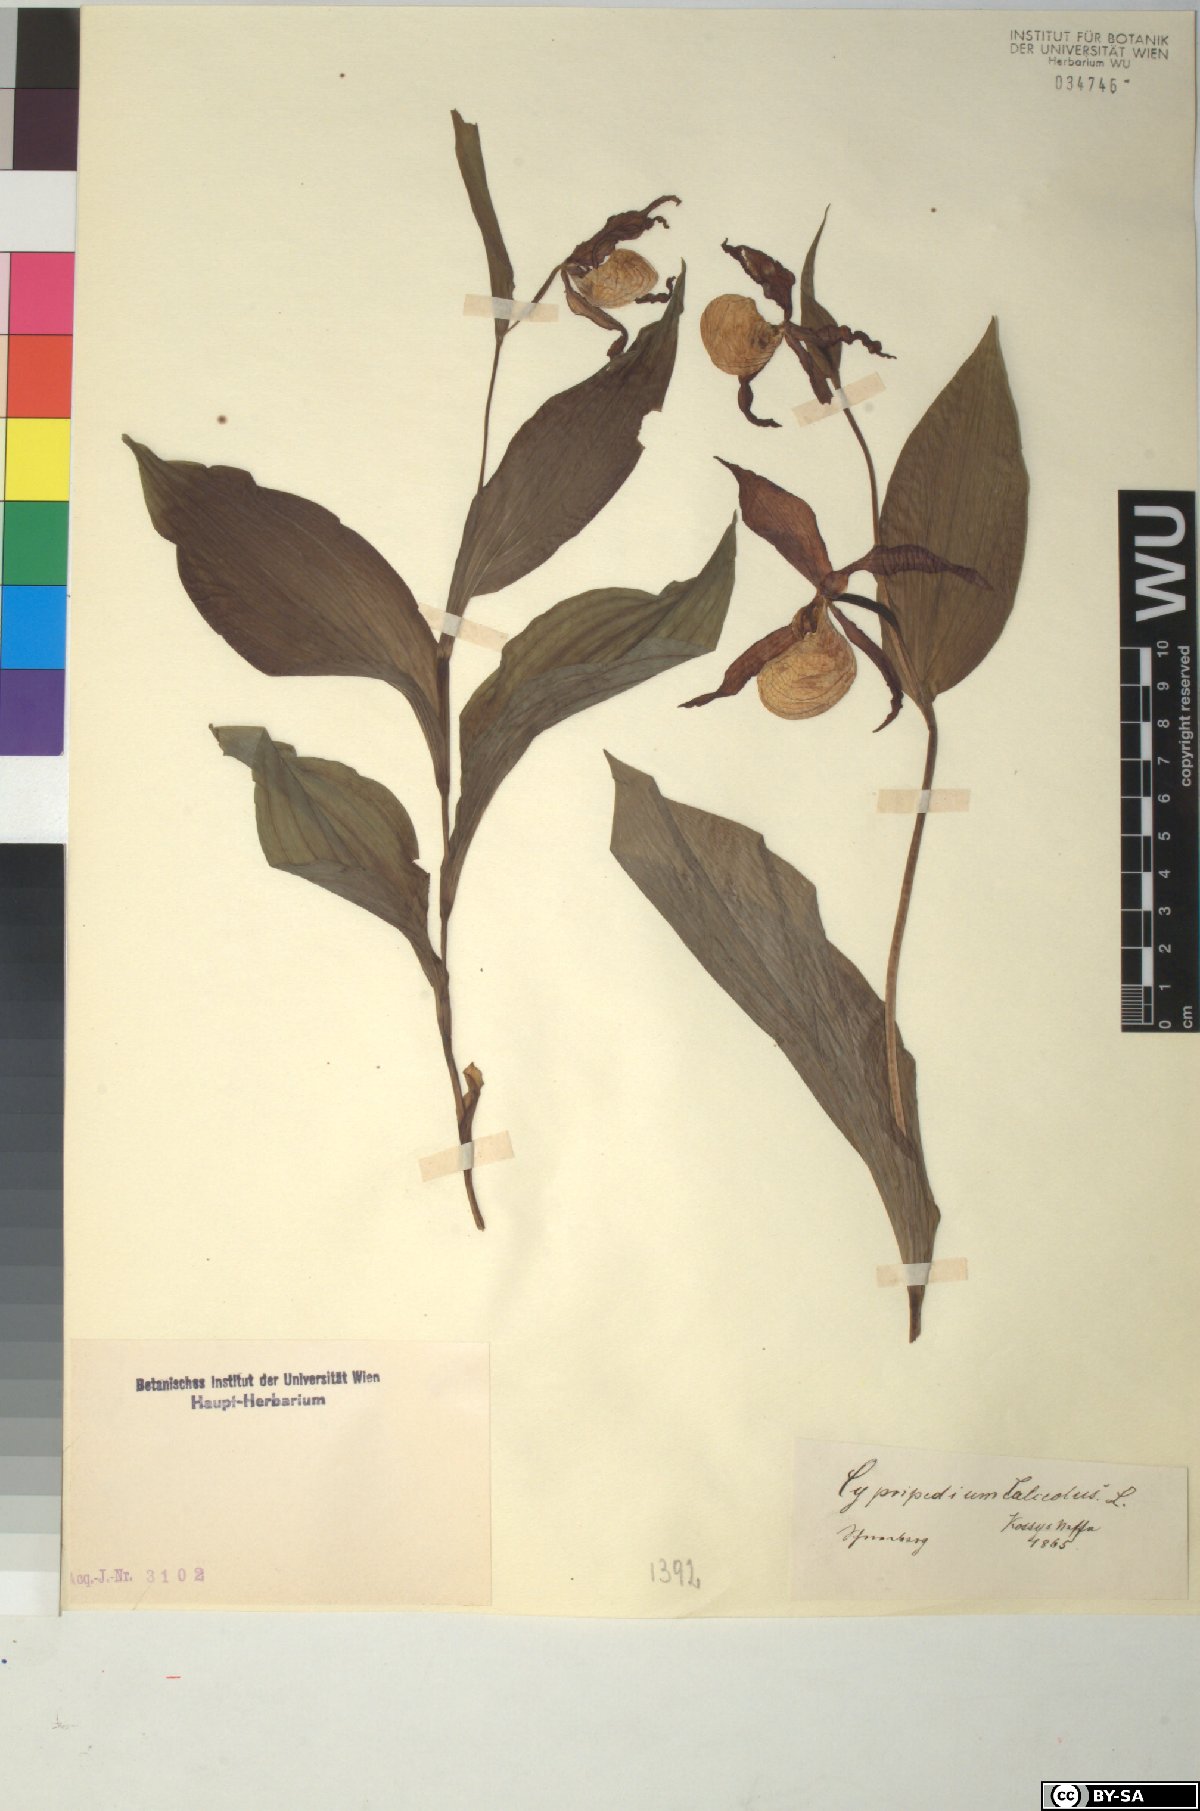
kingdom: Plantae
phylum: Tracheophyta
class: Liliopsida
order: Asparagales
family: Orchidaceae
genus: Cypripedium
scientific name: Cypripedium calceolus
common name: Lady's-slipper
